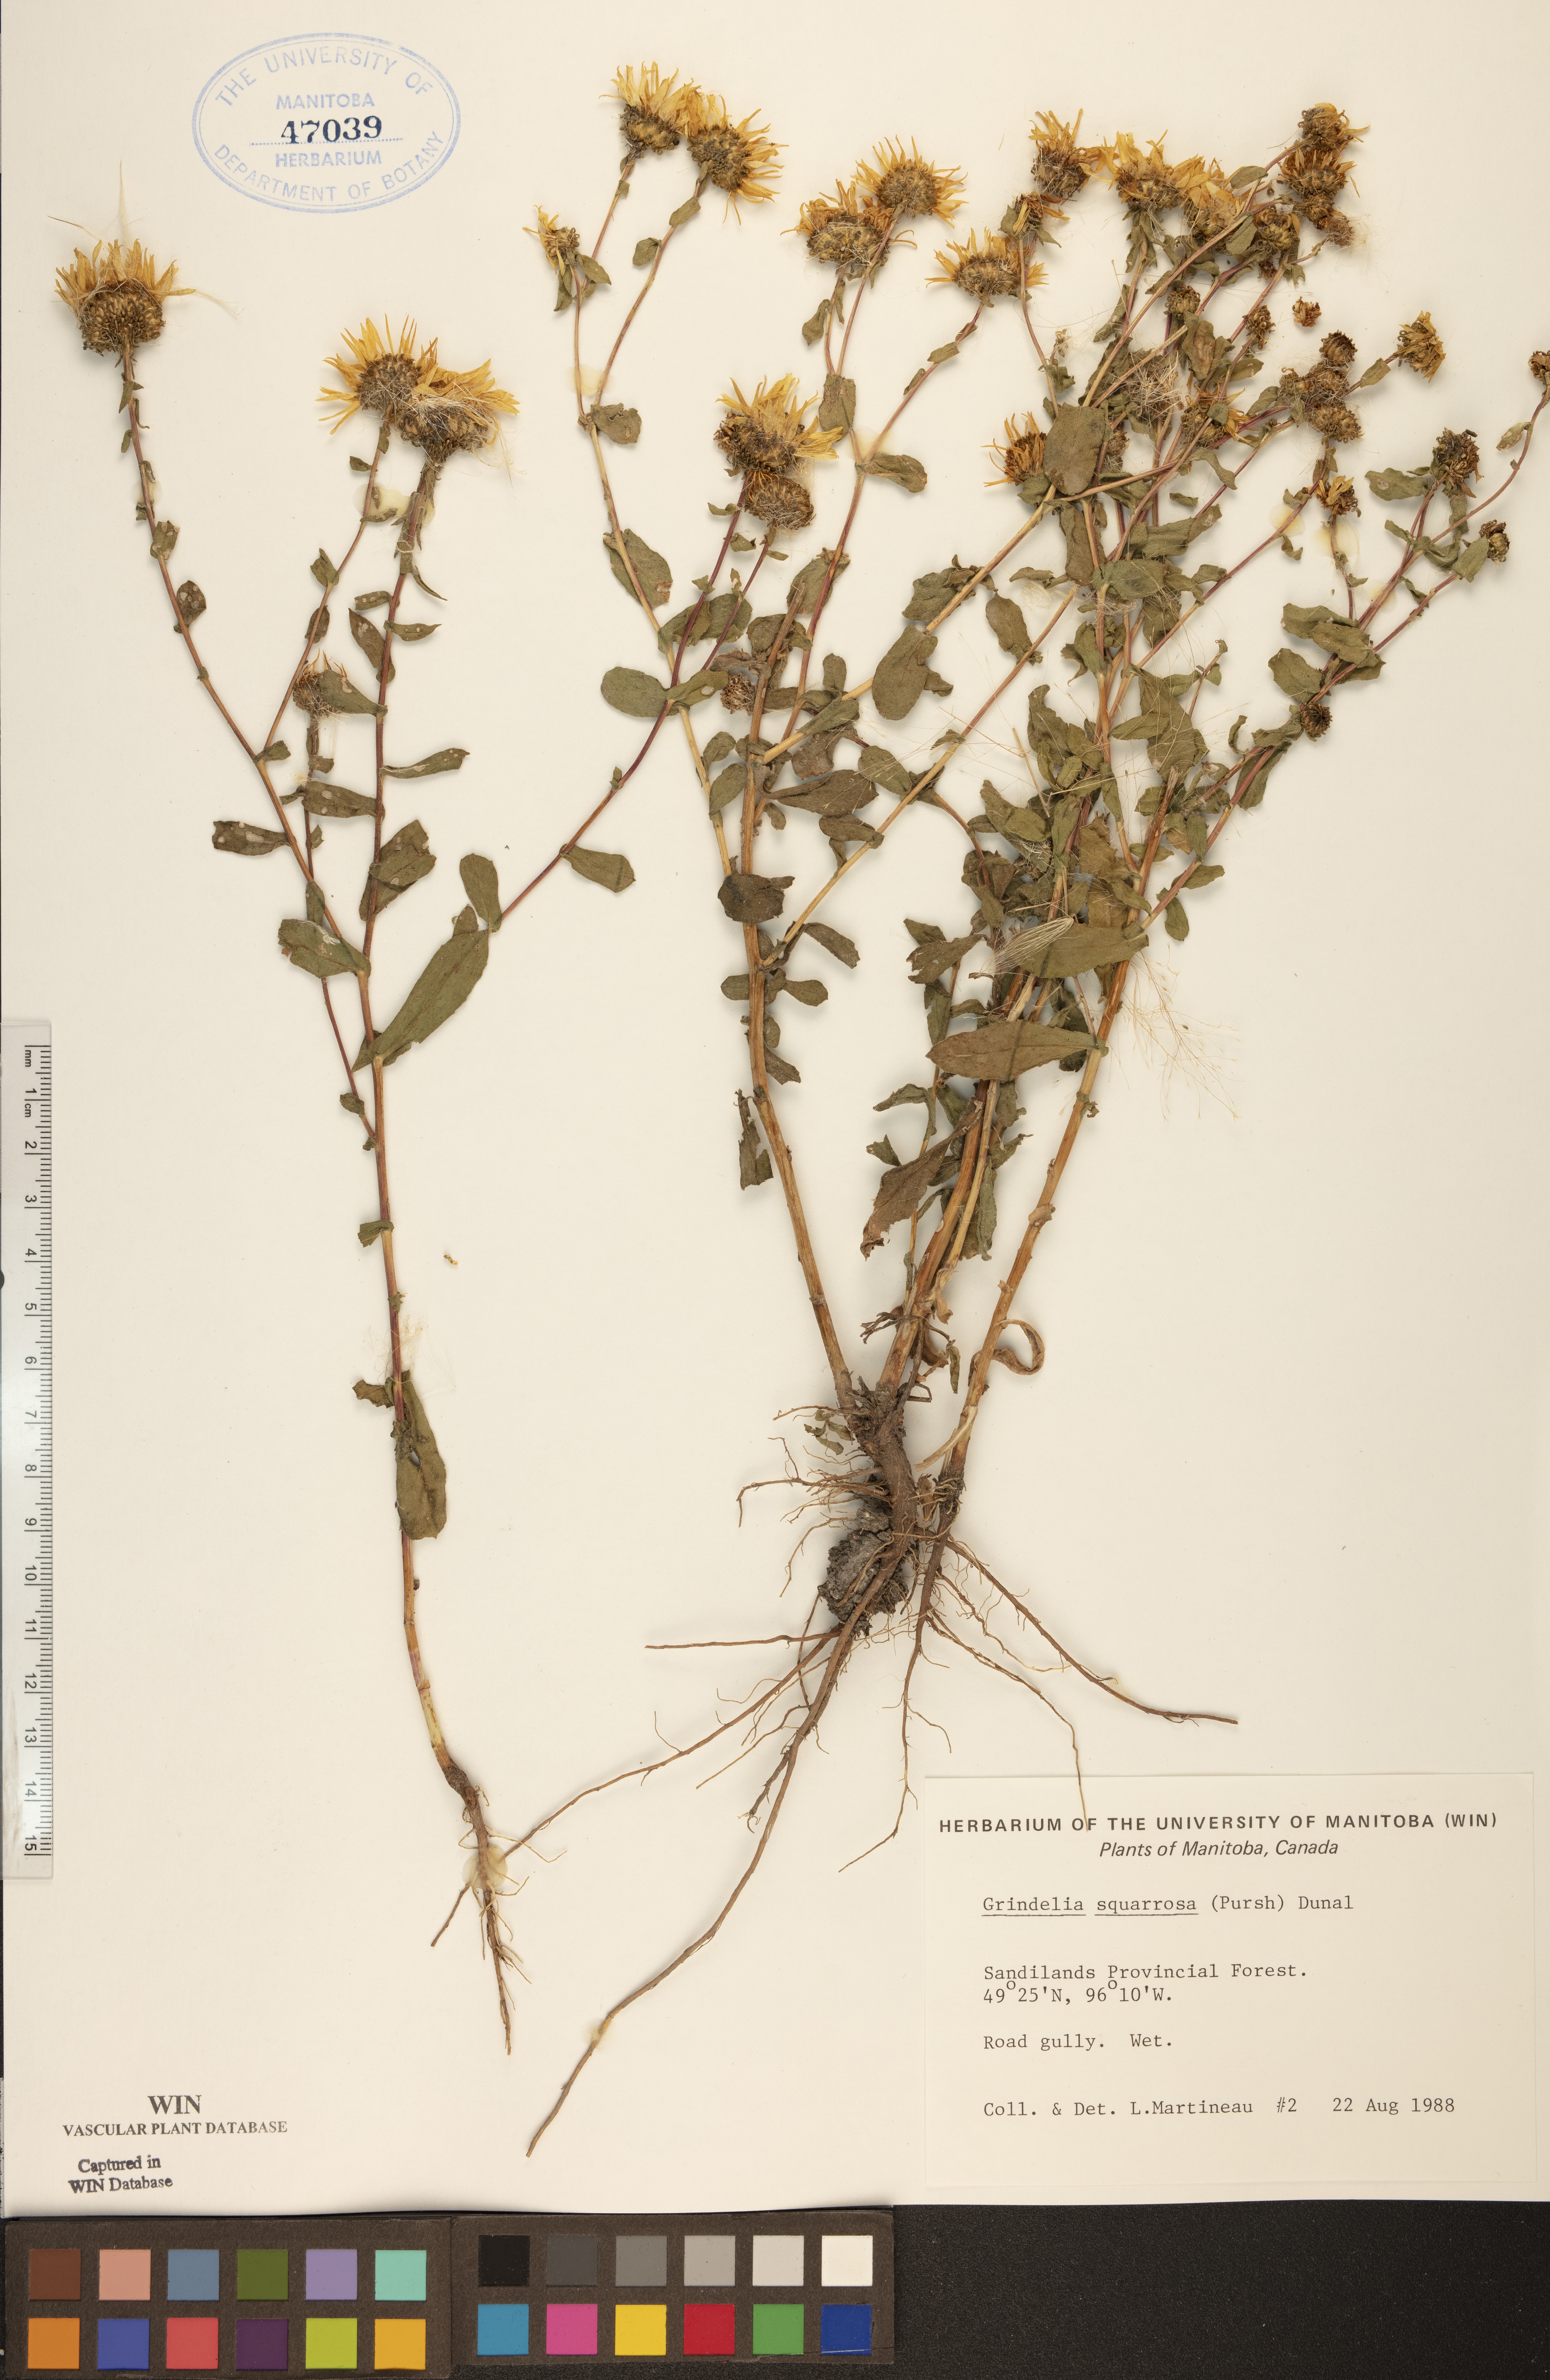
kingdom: Plantae
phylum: Tracheophyta
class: Magnoliopsida
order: Asterales
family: Asteraceae
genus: Grindelia
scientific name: Grindelia squarrosa
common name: Curly-cup gumweed
